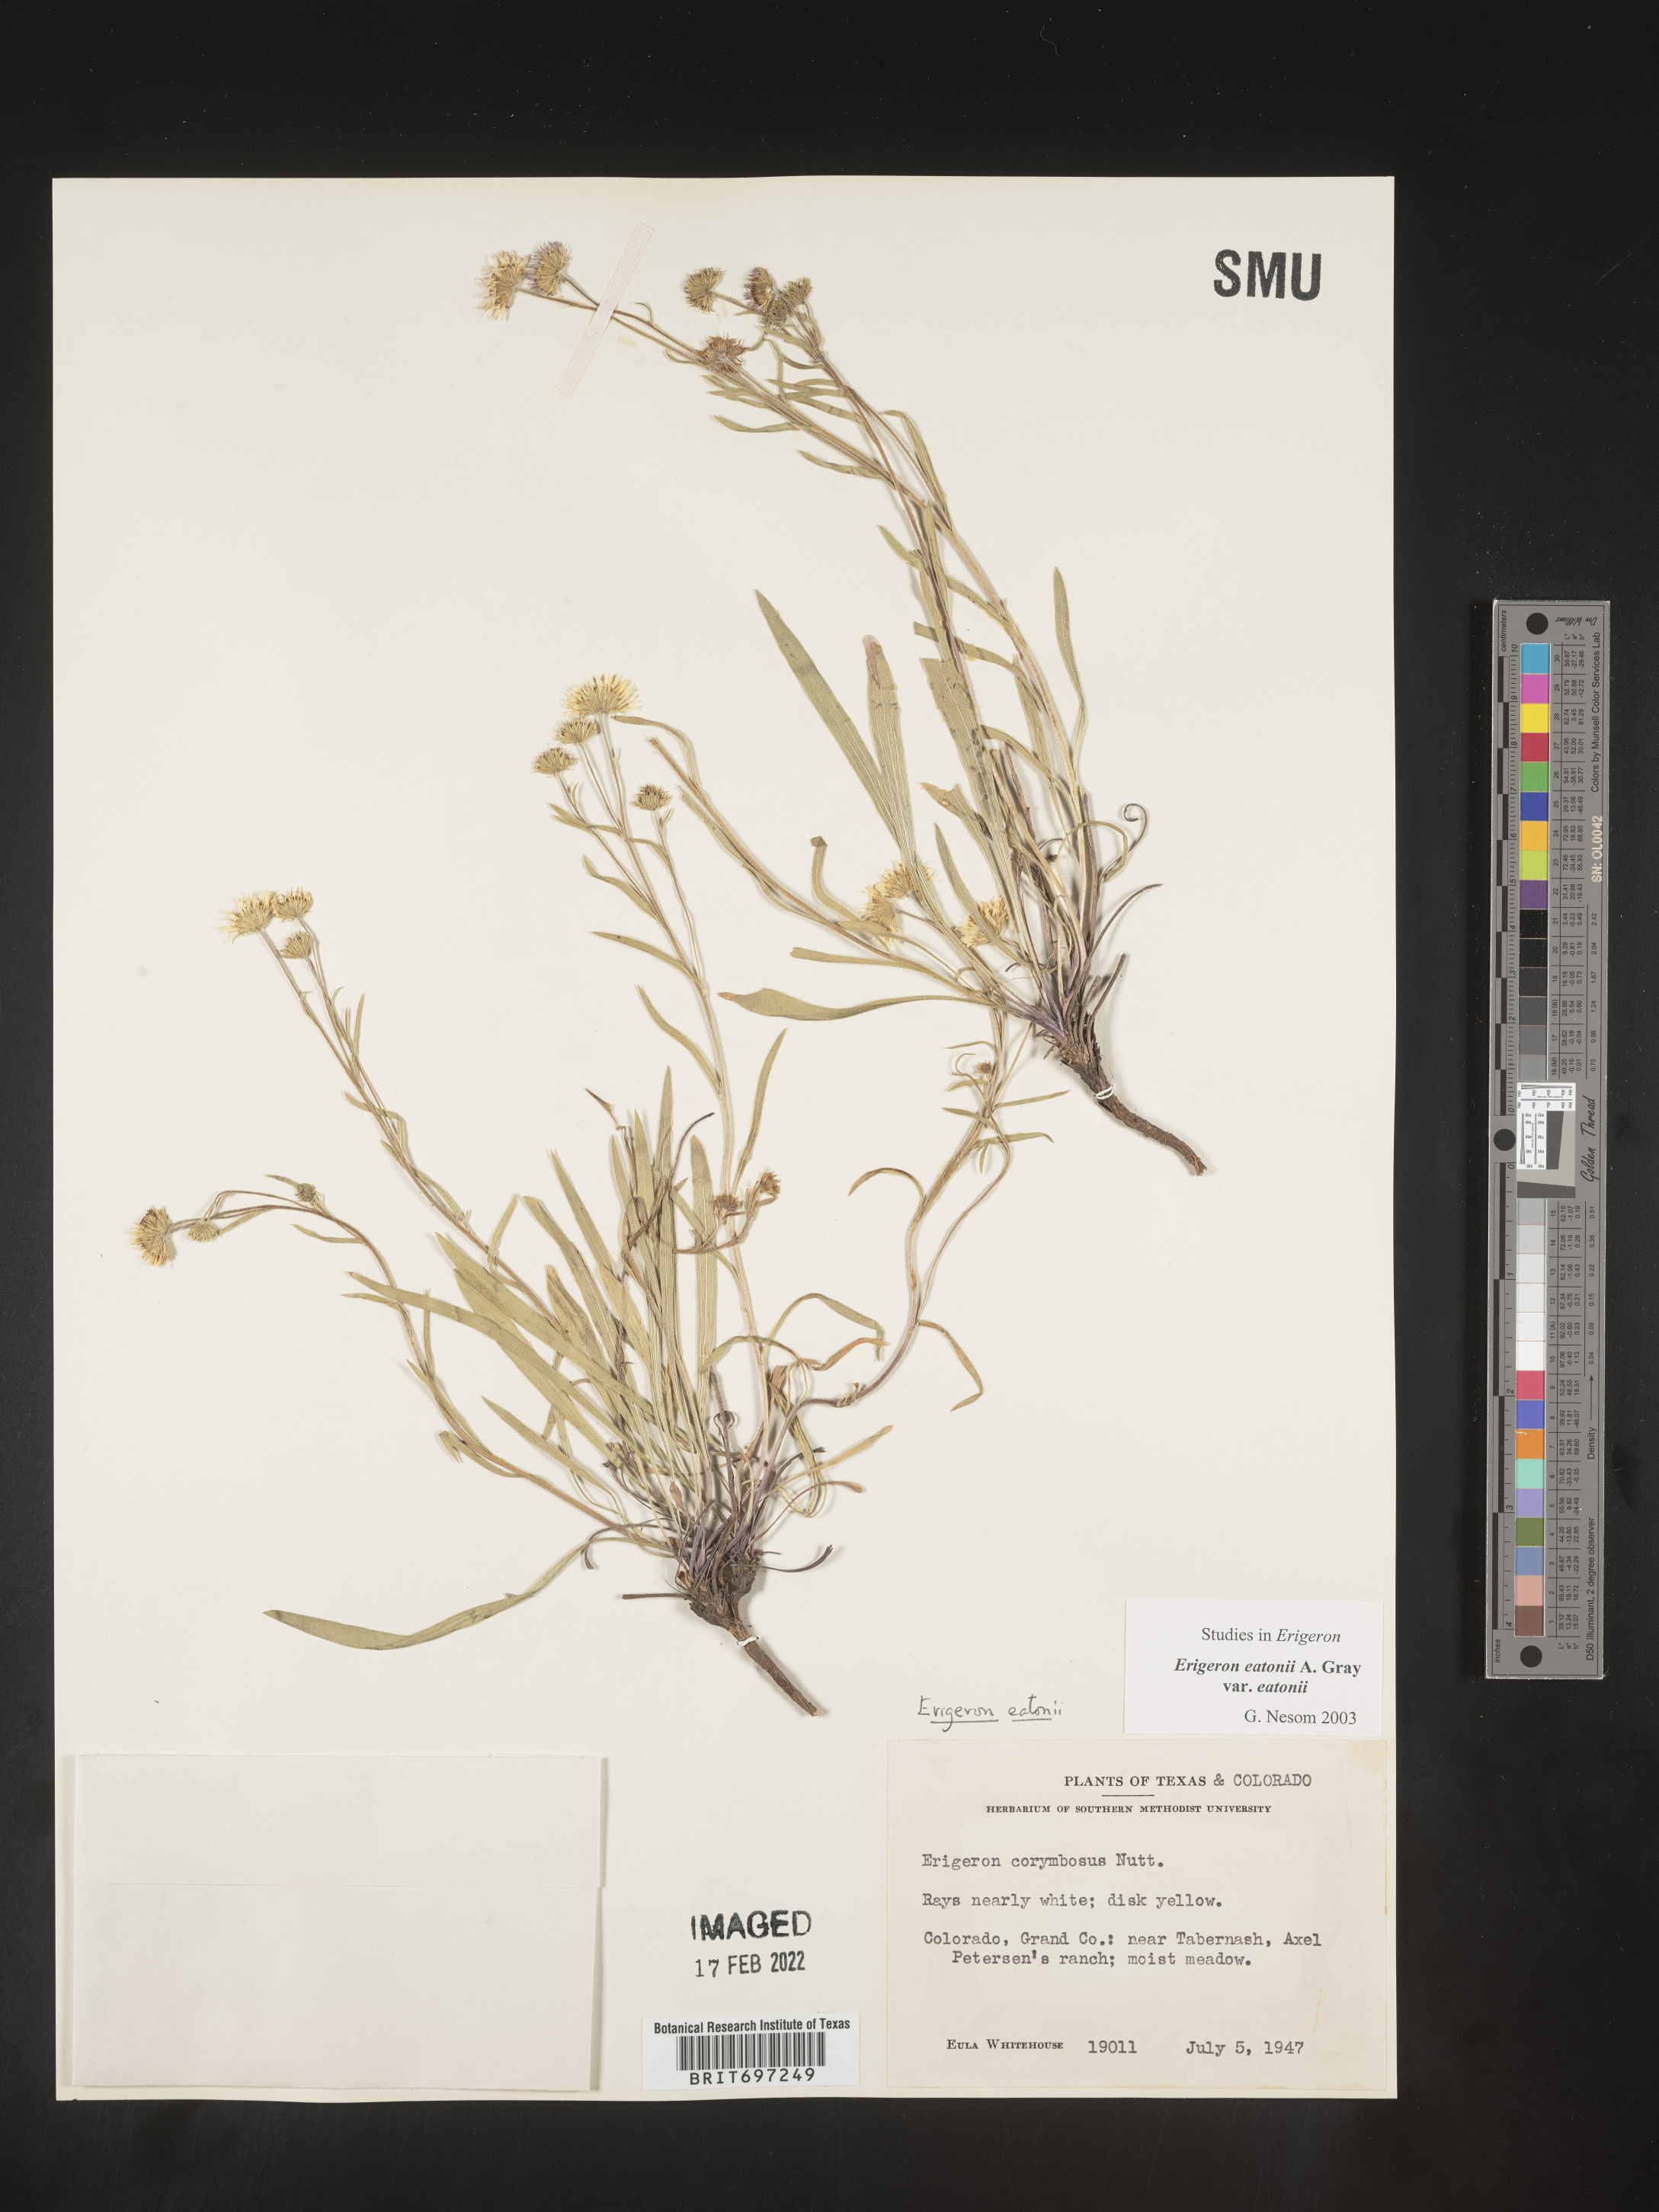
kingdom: Plantae
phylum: Tracheophyta
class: Magnoliopsida
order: Asterales
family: Asteraceae
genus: Erigeron
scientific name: Erigeron eatonii
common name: Eaton's fleabane
